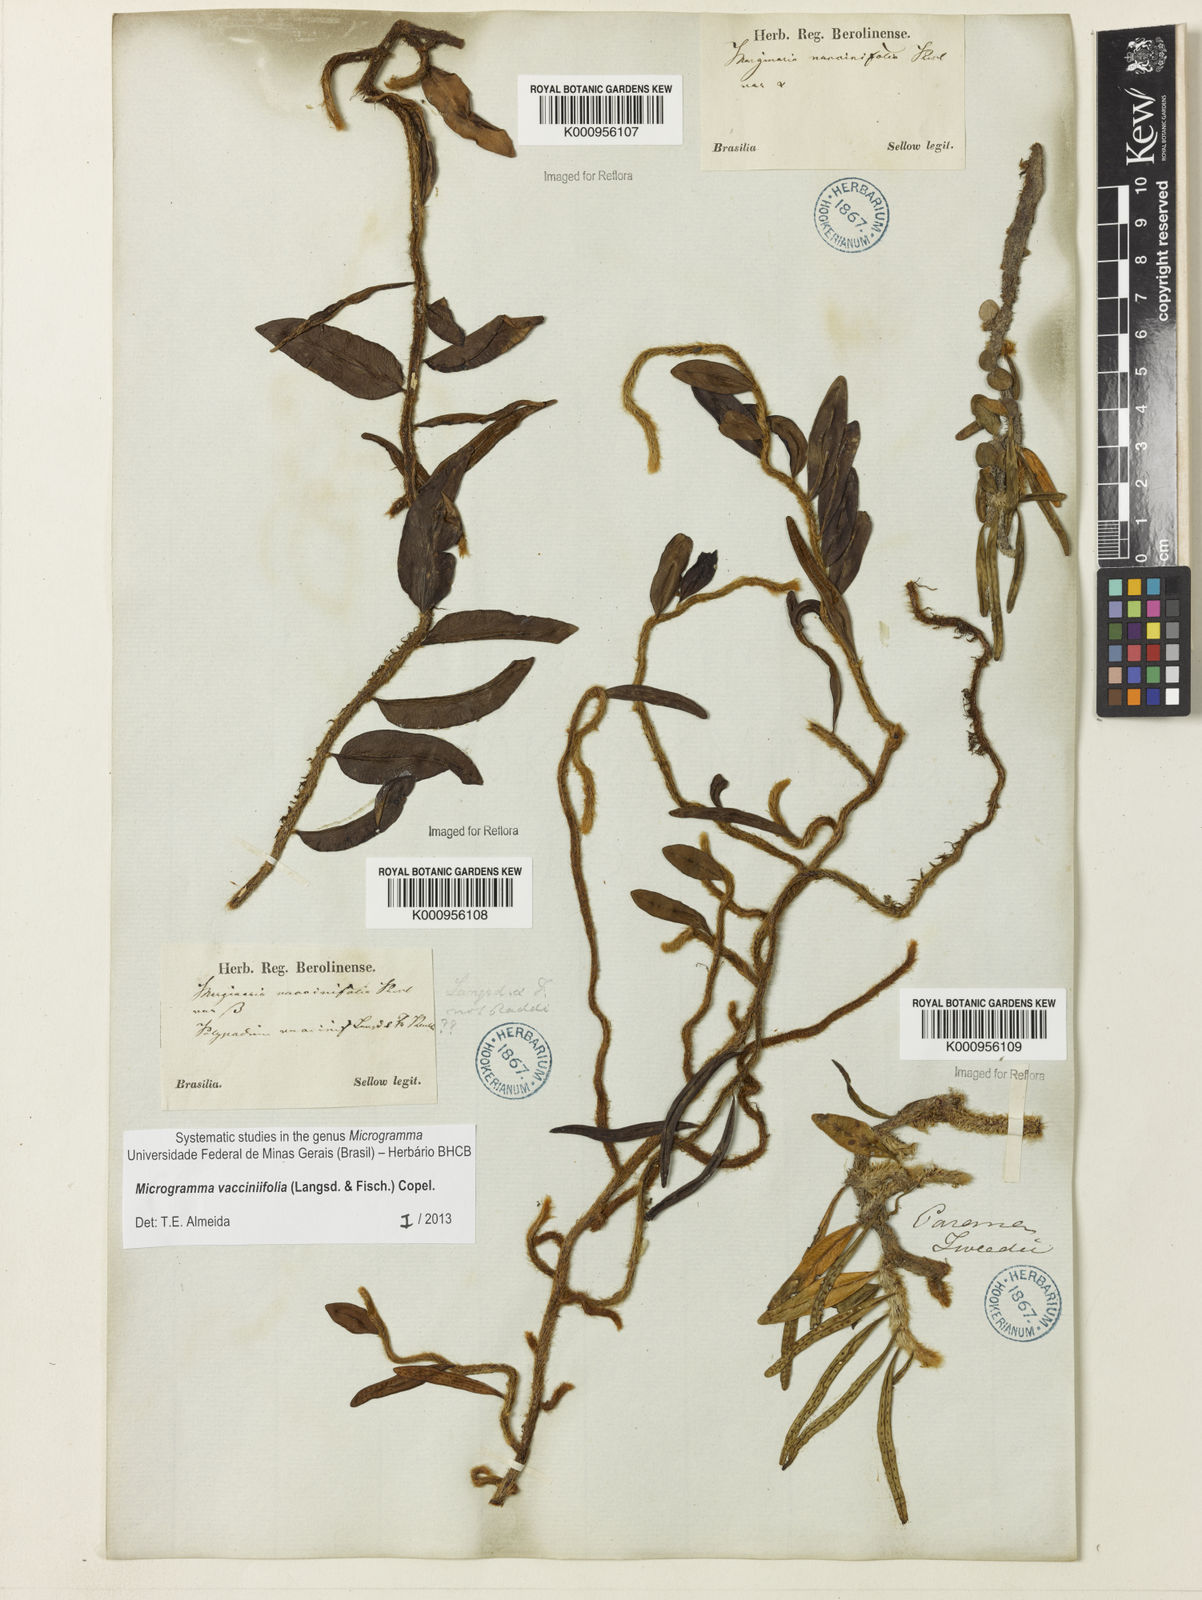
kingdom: Plantae
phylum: Tracheophyta
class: Polypodiopsida
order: Polypodiales
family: Polypodiaceae
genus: Phlebodium
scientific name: Phlebodium
